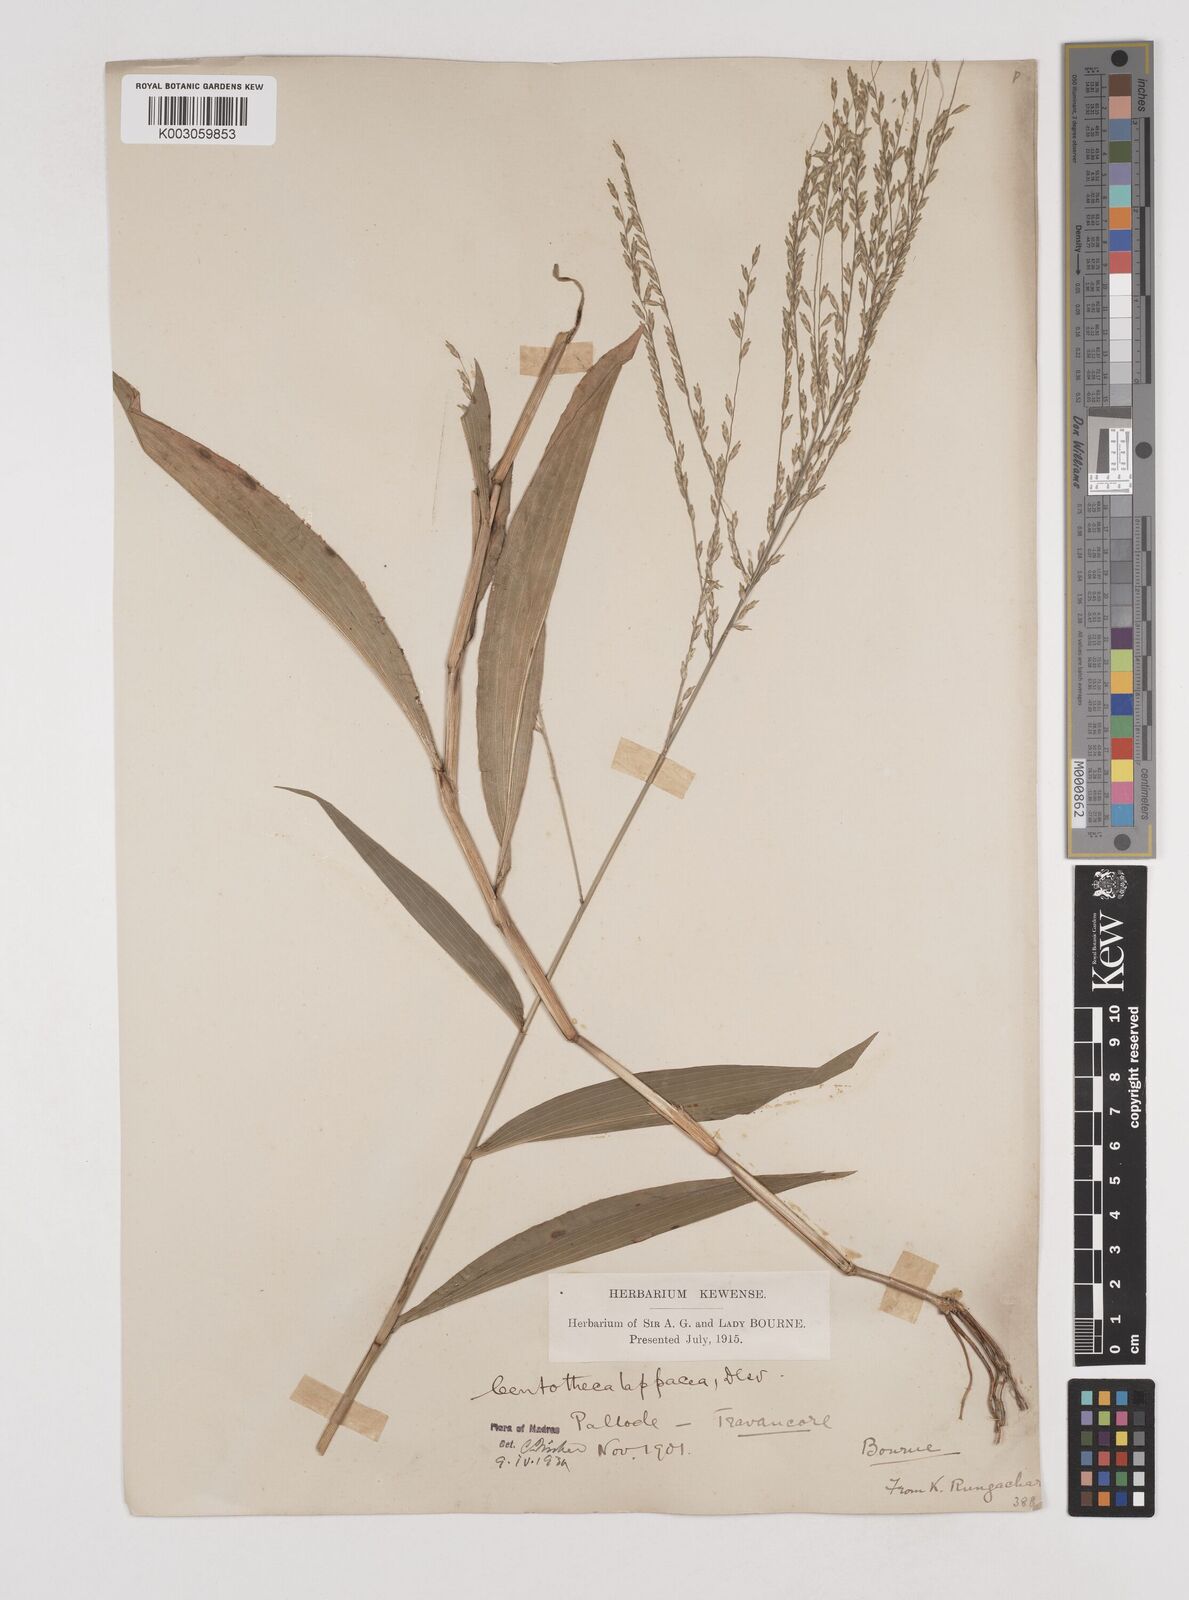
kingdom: Plantae
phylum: Tracheophyta
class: Liliopsida
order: Poales
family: Poaceae
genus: Centotheca
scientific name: Centotheca lappacea
